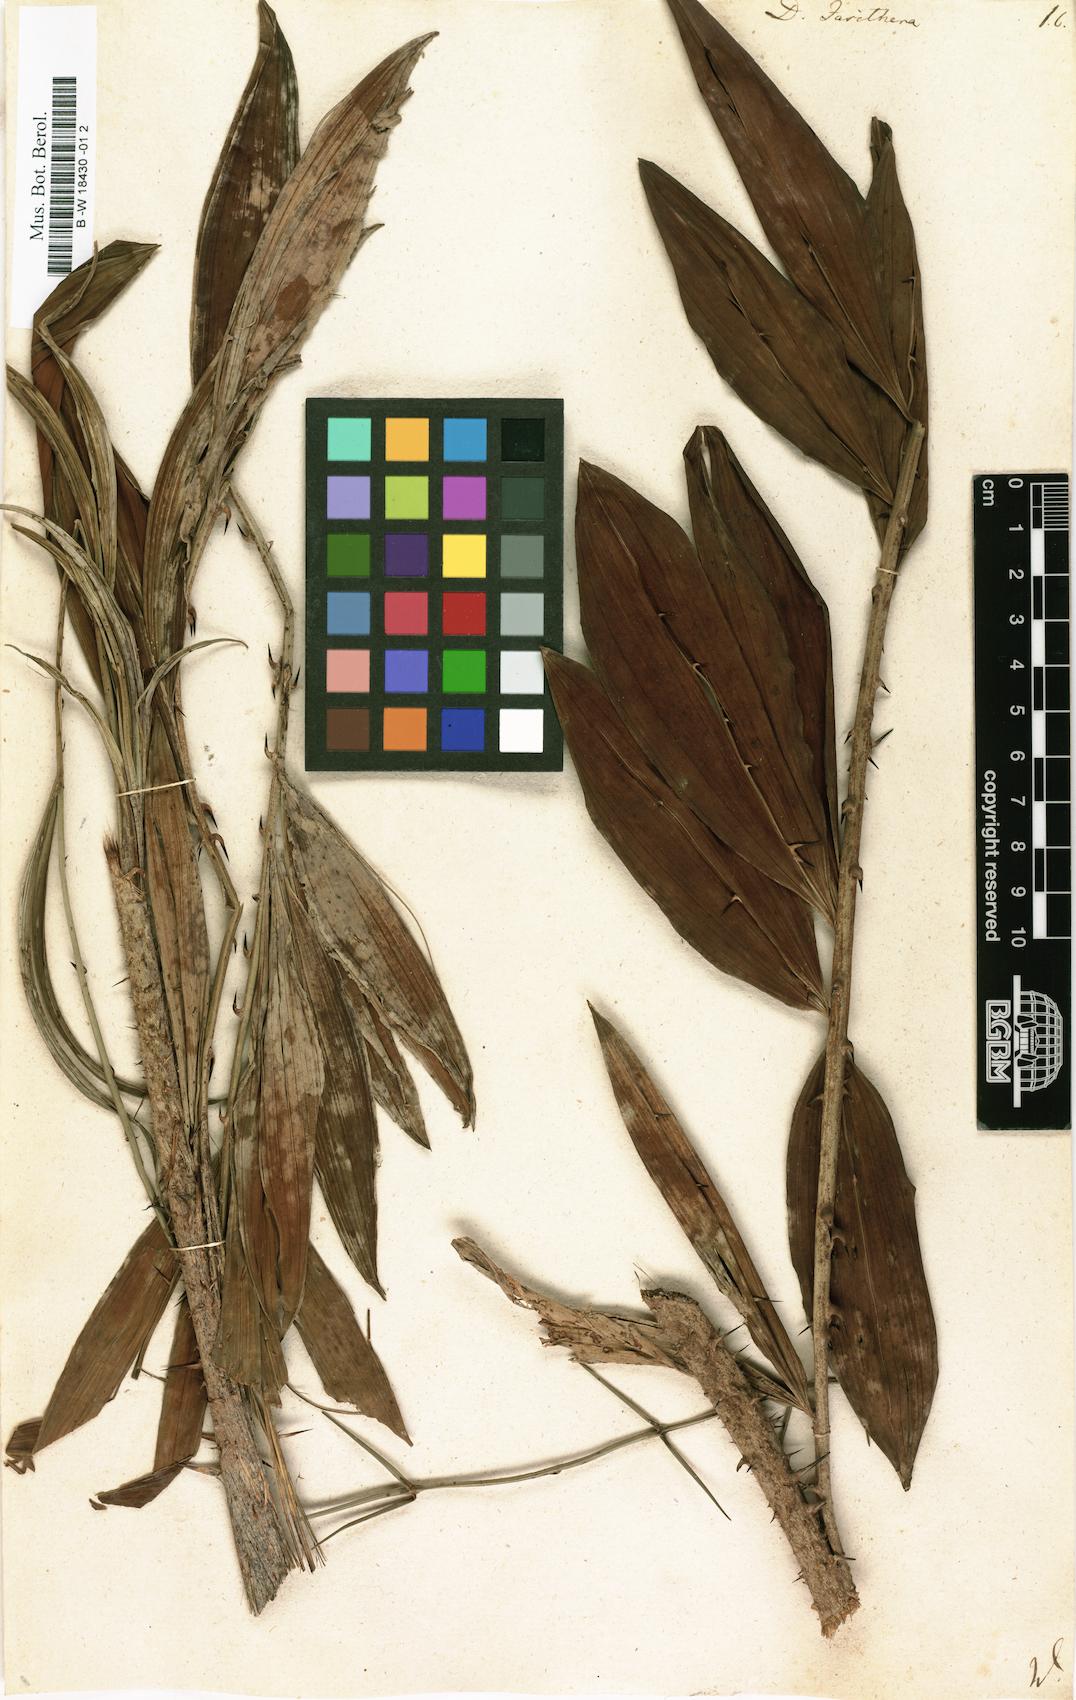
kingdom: Plantae
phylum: Tracheophyta
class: Liliopsida
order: Zingiberales
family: Marantaceae
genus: Donax
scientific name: Donax
